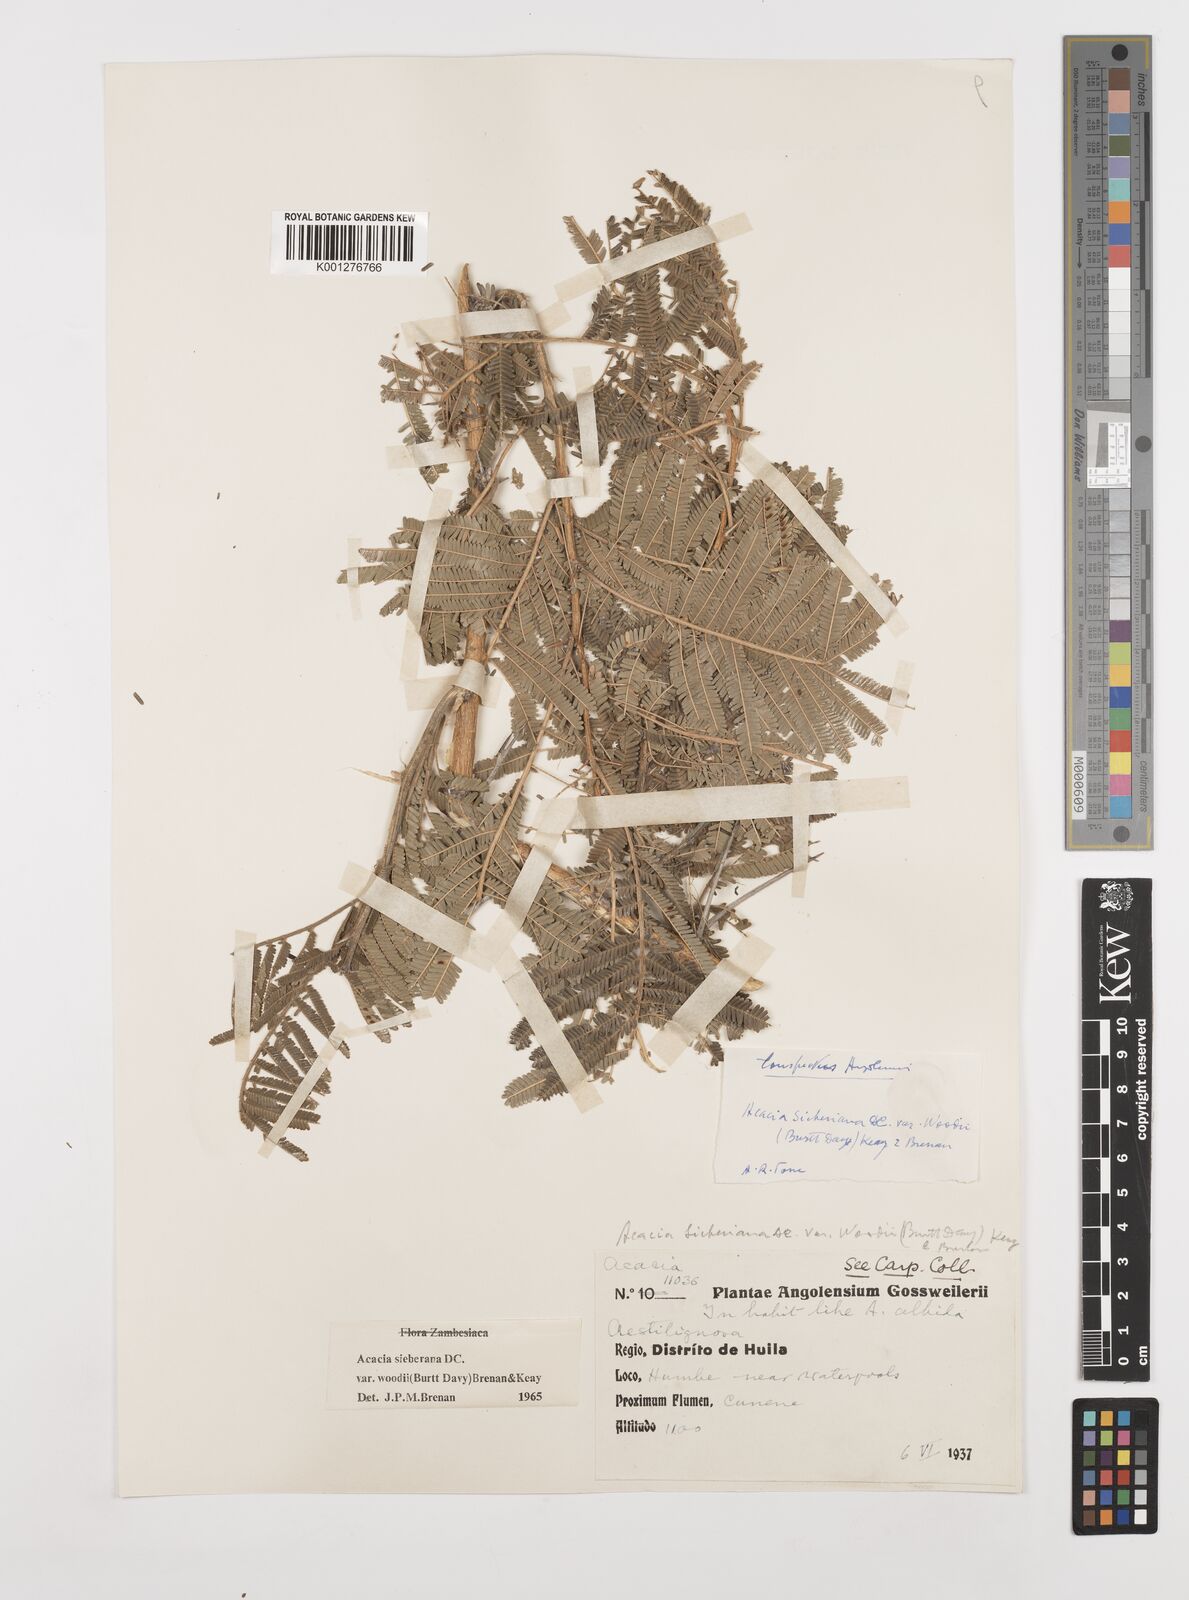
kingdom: Plantae
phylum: Tracheophyta
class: Magnoliopsida
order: Fabales
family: Fabaceae
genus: Vachellia
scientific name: Vachellia sieberiana
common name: Flat-topped thorn
